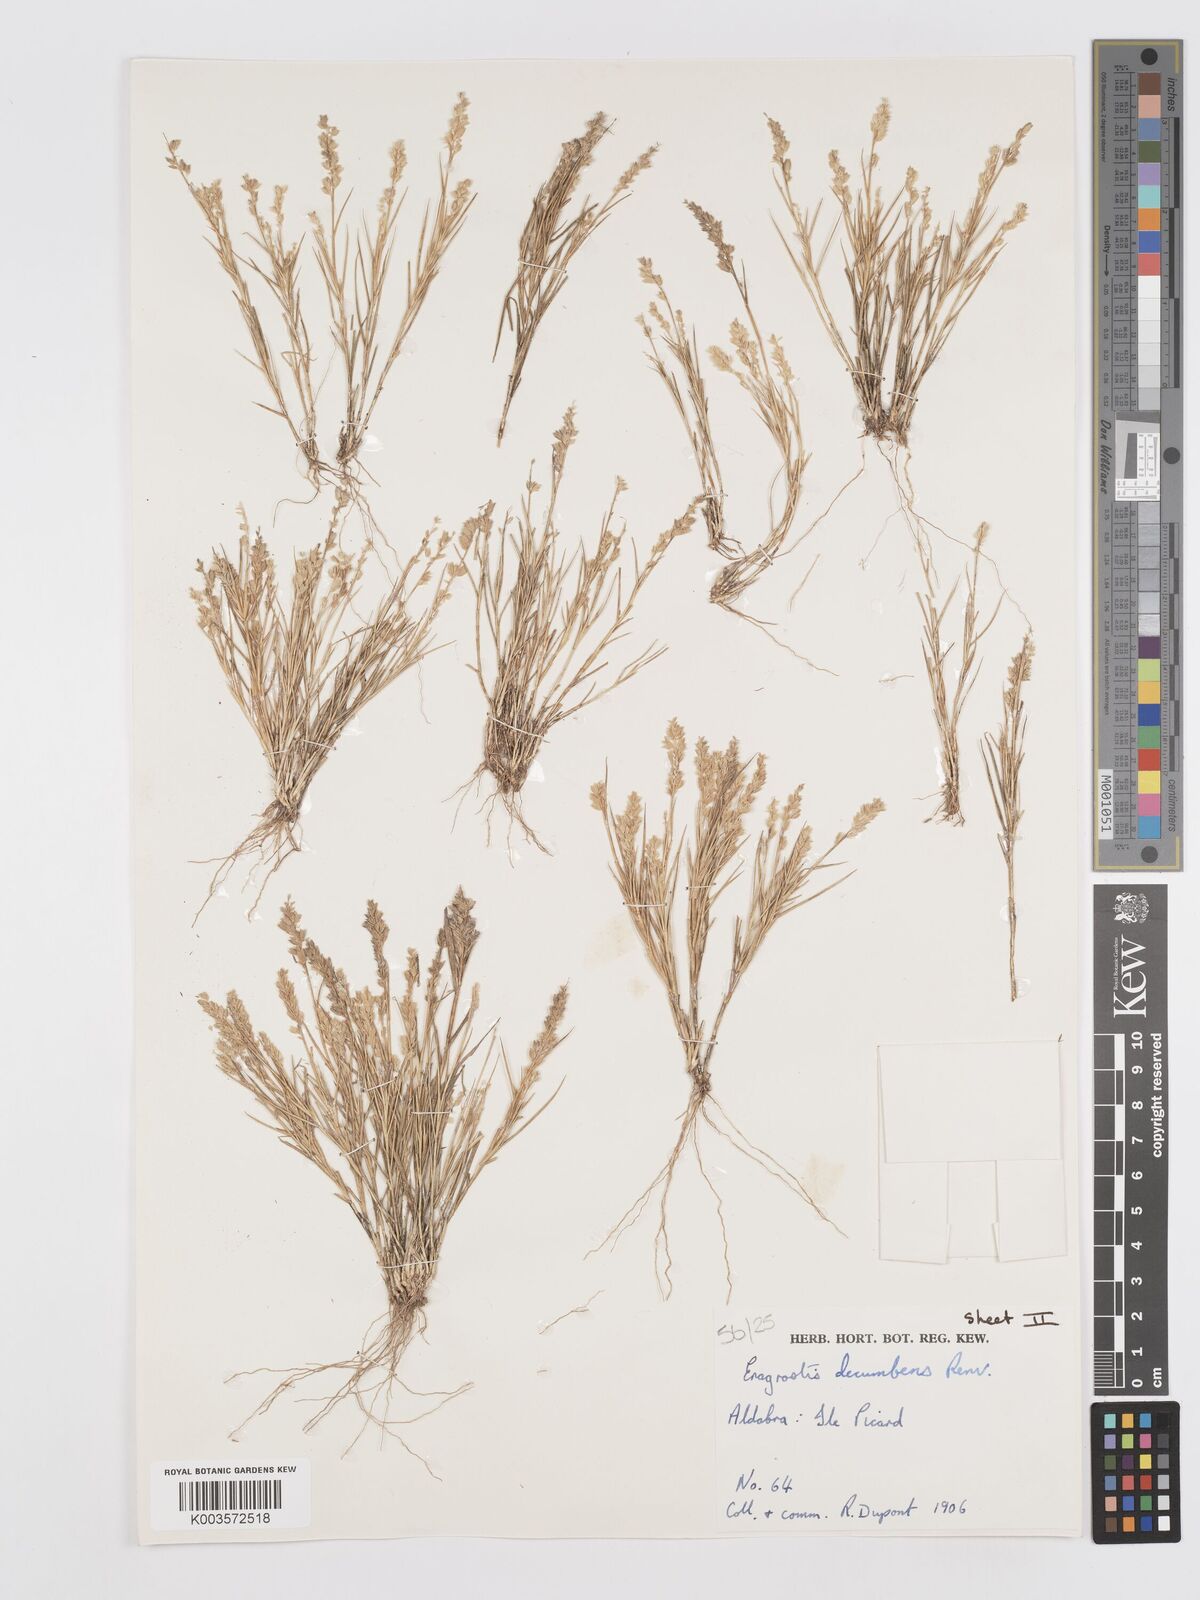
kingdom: Plantae
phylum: Tracheophyta
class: Liliopsida
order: Poales
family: Poaceae
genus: Eragrostis
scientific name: Eragrostis decumbens
